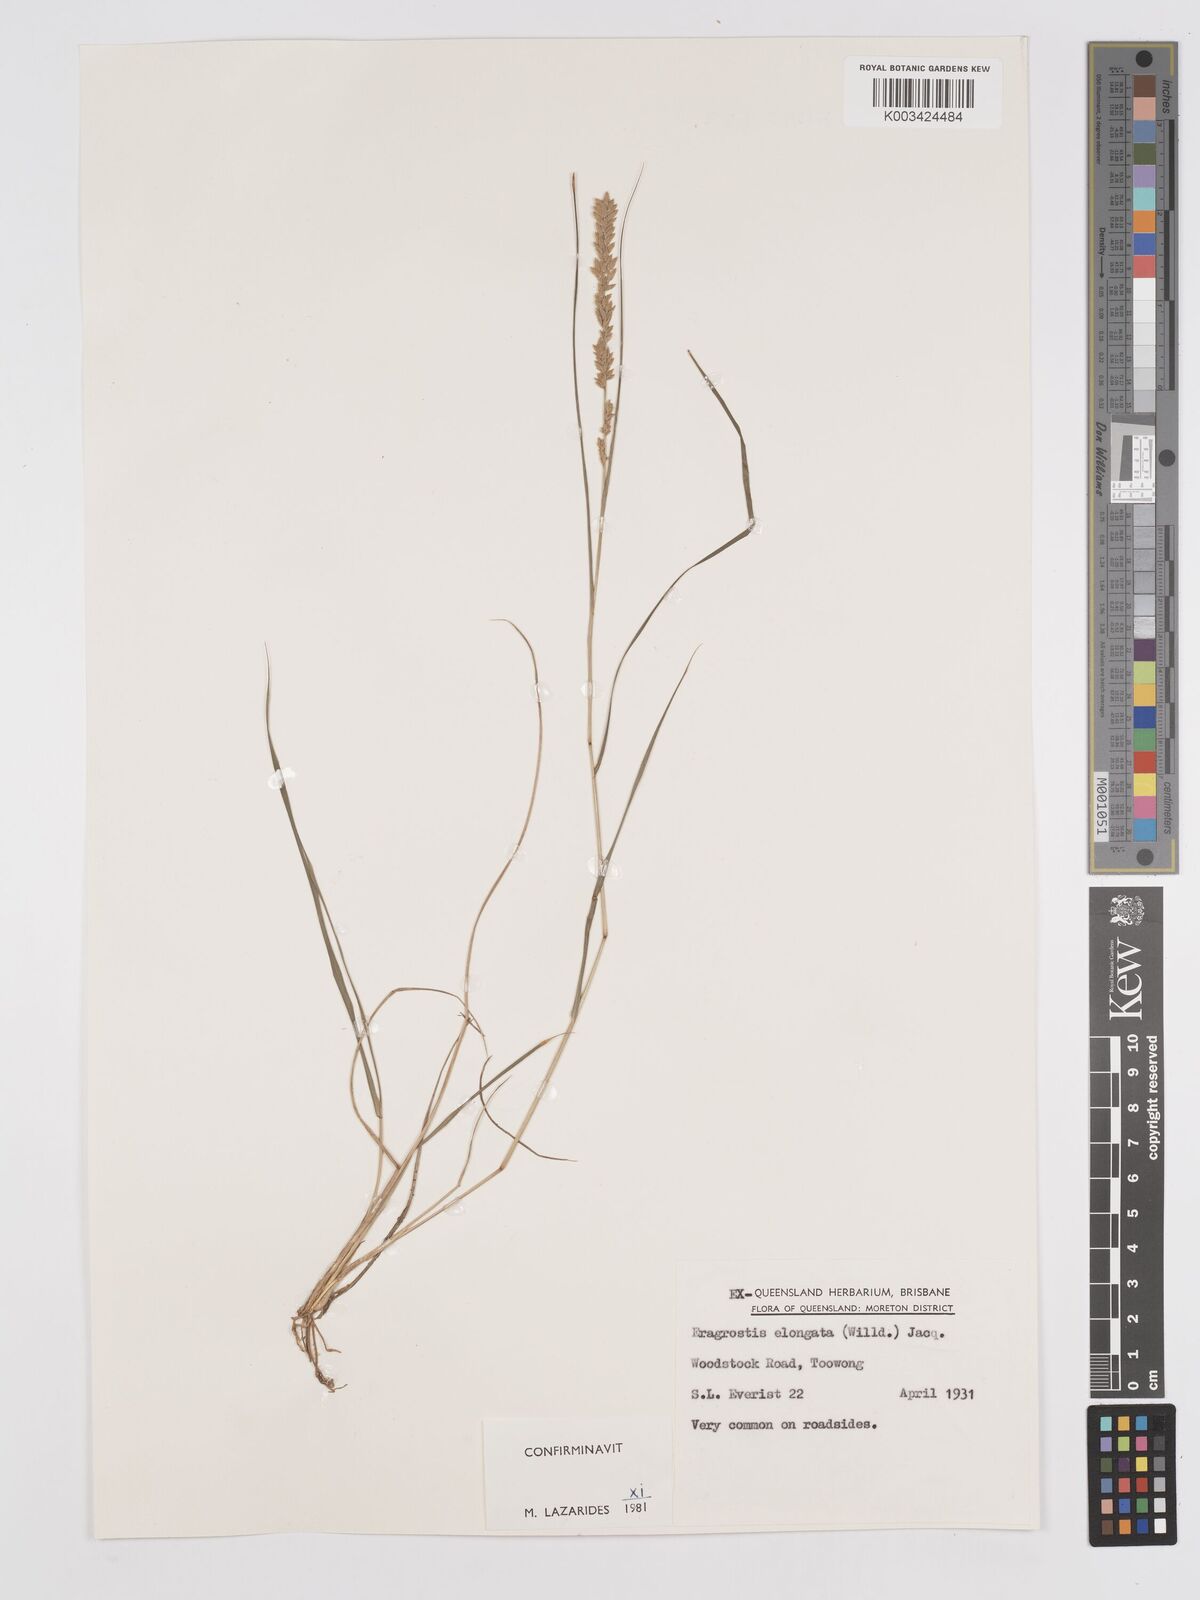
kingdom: Plantae
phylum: Tracheophyta
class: Liliopsida
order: Poales
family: Poaceae
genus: Eragrostis
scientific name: Eragrostis elongata
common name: Long lovegrass
